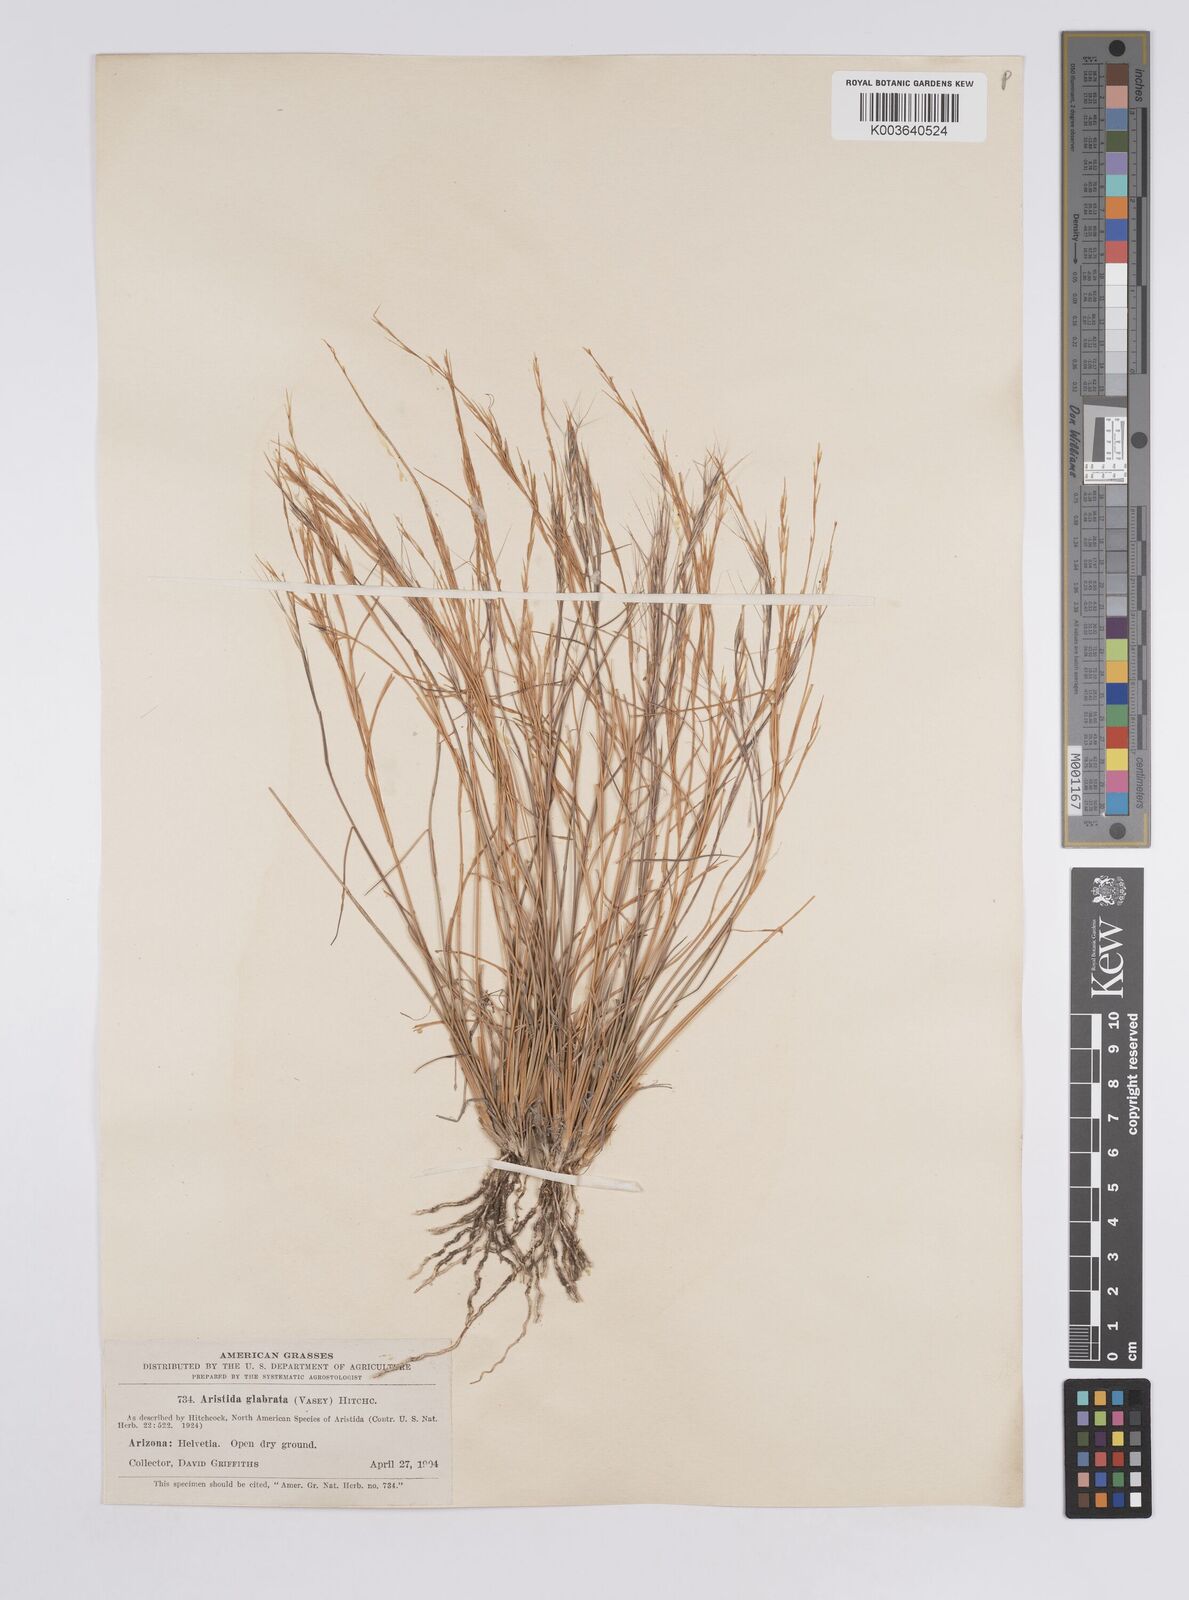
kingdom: Plantae
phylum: Tracheophyta
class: Liliopsida
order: Poales
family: Poaceae
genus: Aristida
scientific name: Aristida californica
